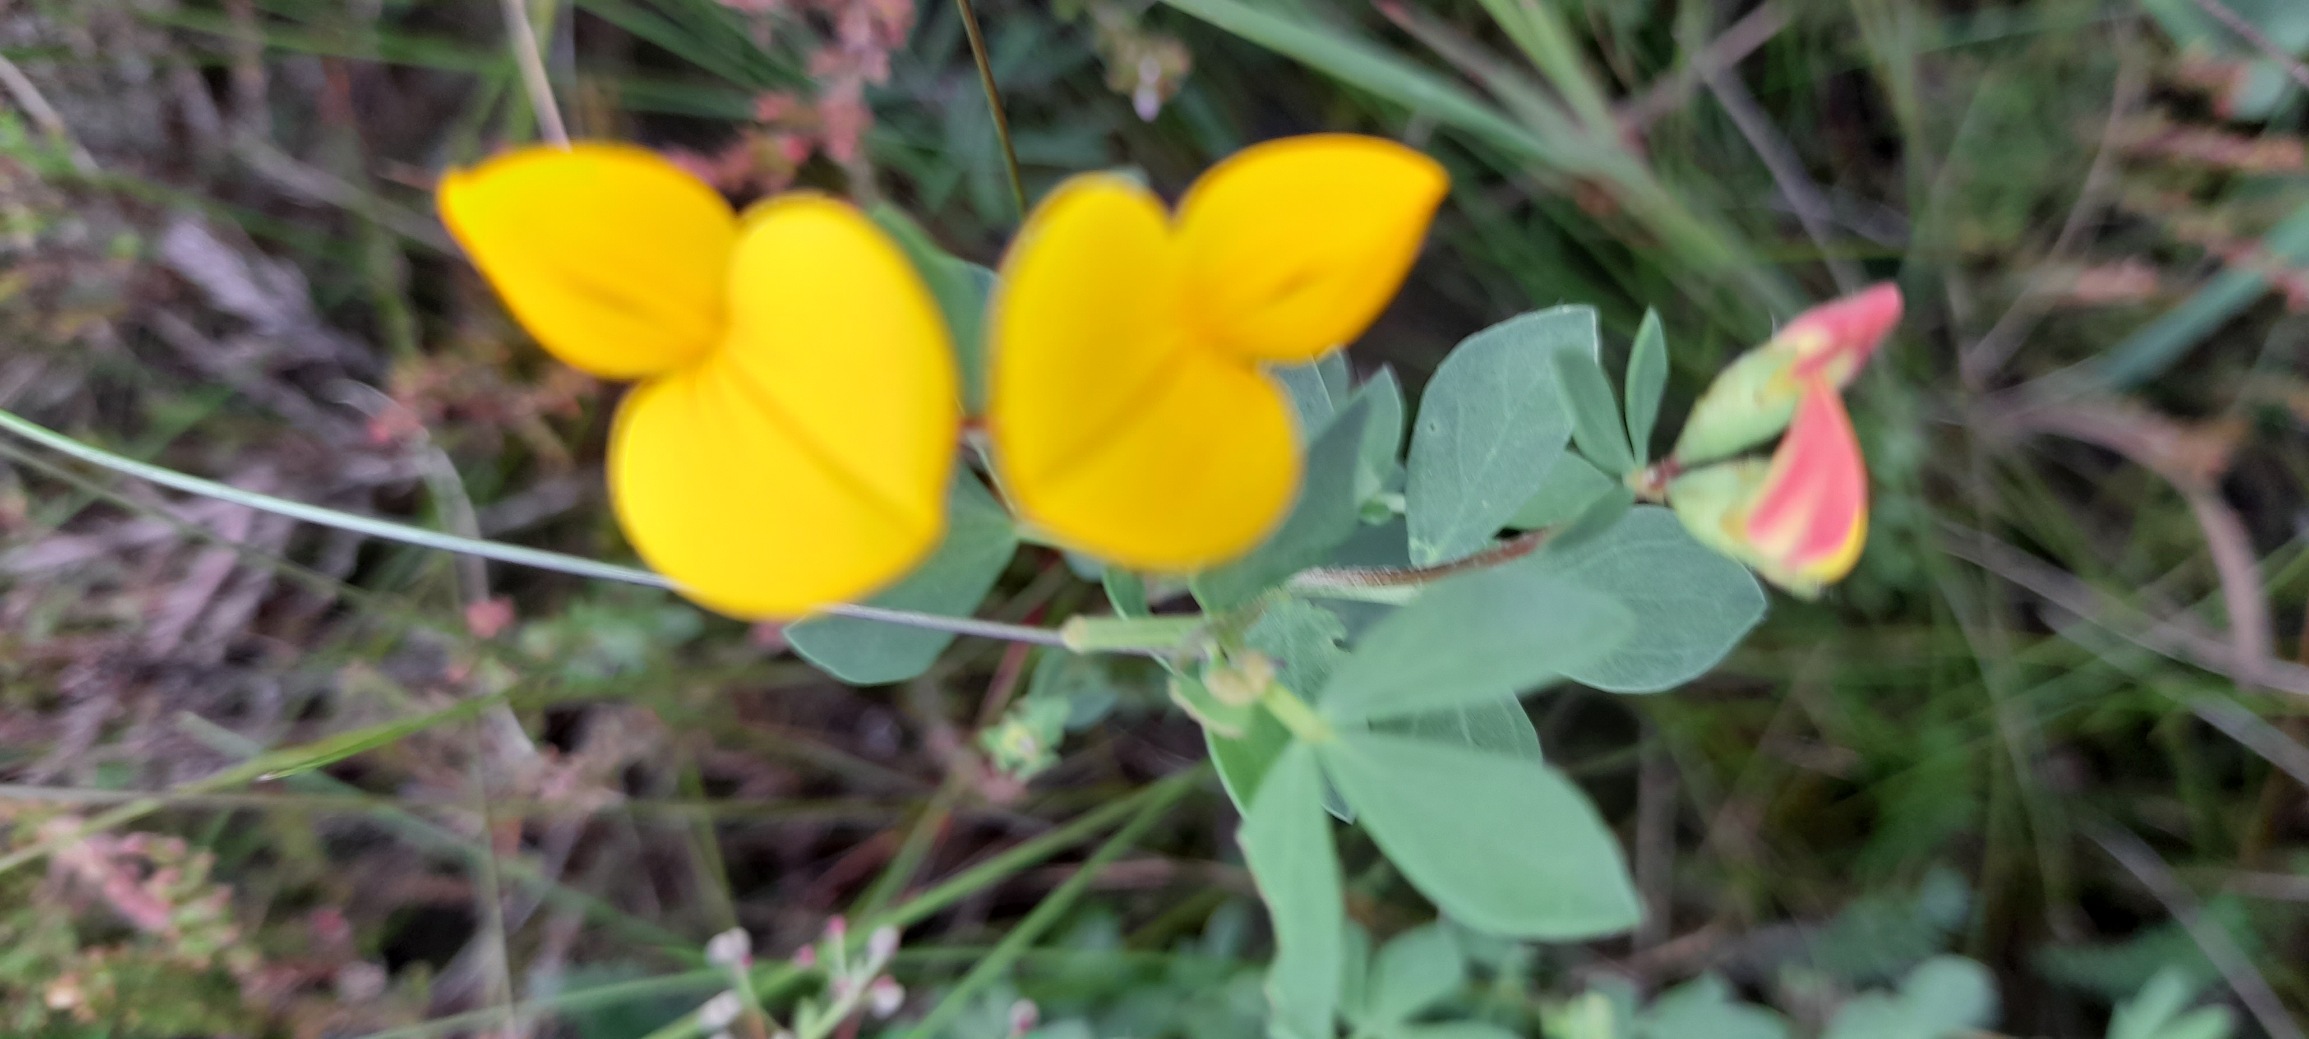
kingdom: Plantae
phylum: Tracheophyta
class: Magnoliopsida
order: Fabales
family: Fabaceae
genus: Lotus
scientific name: Lotus corniculatus
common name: Almindelig kællingetand
